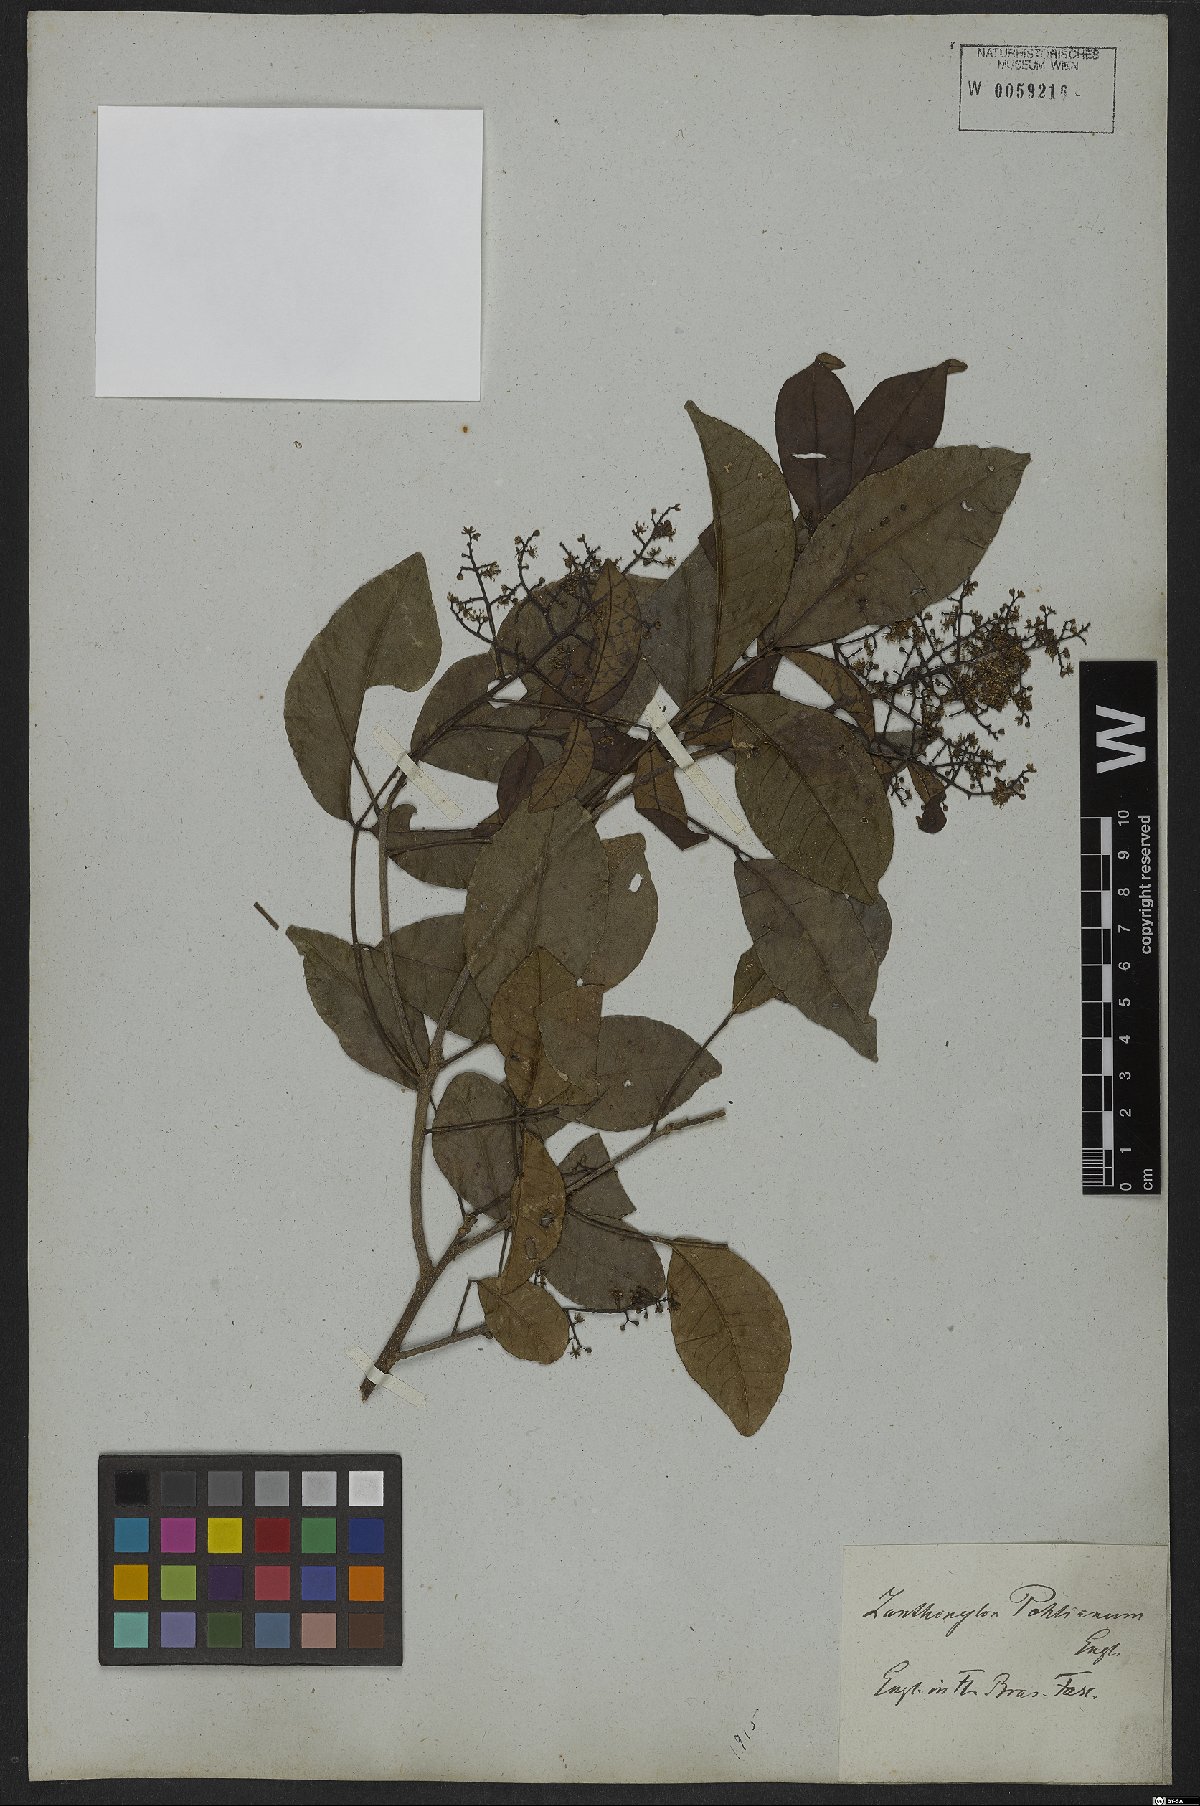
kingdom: Plantae
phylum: Tracheophyta
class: Magnoliopsida
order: Sapindales
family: Rutaceae
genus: Zanthoxylum
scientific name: Zanthoxylum monogynum
